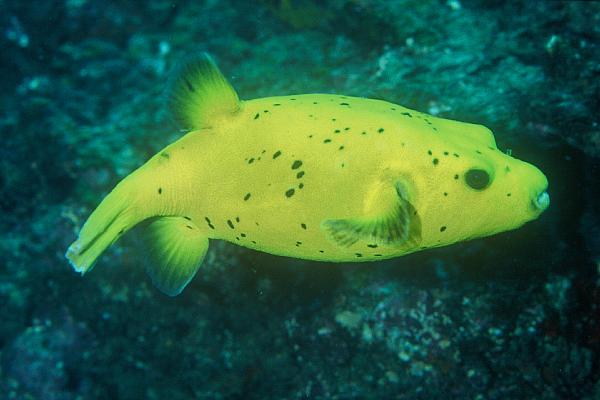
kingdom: Animalia
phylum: Chordata
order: Tetraodontiformes
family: Tetraodontidae
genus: Arothron
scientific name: Arothron nigropunctatus
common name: Black spotted blow fish
